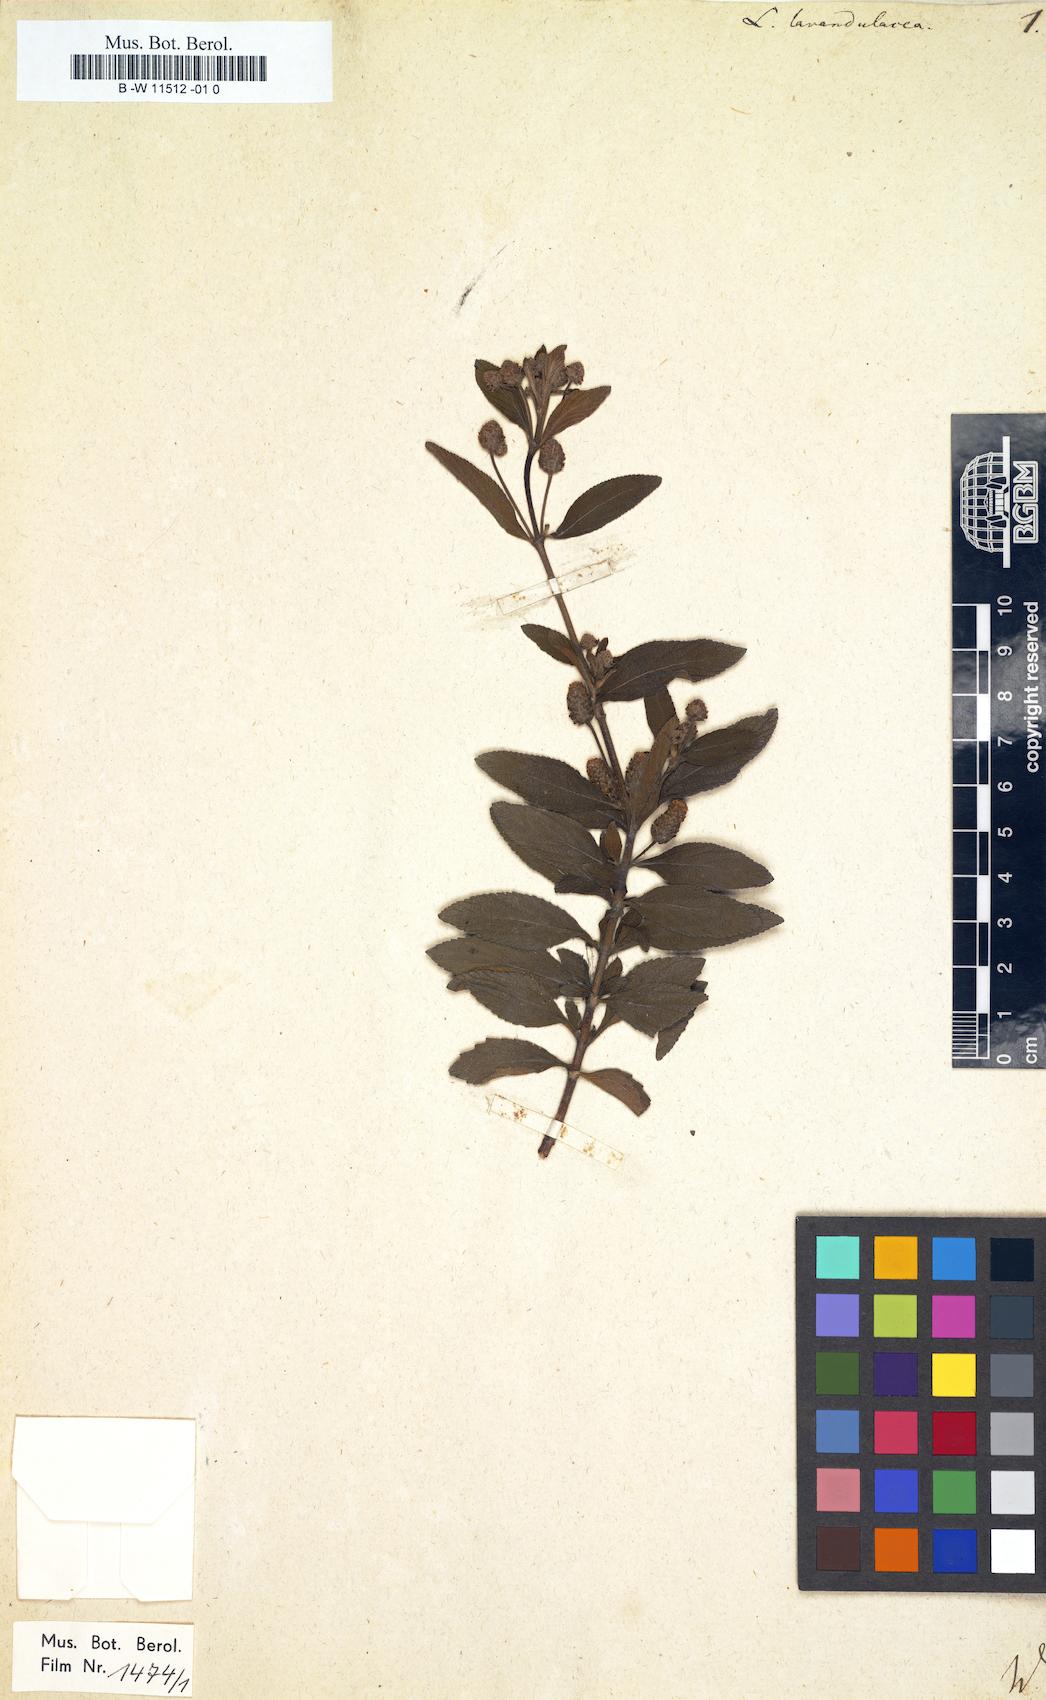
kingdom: Plantae
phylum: Tracheophyta
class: Magnoliopsida
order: Lamiales
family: Verbenaceae
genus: Lippia
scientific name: Lippia javanica
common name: Lemonbush
